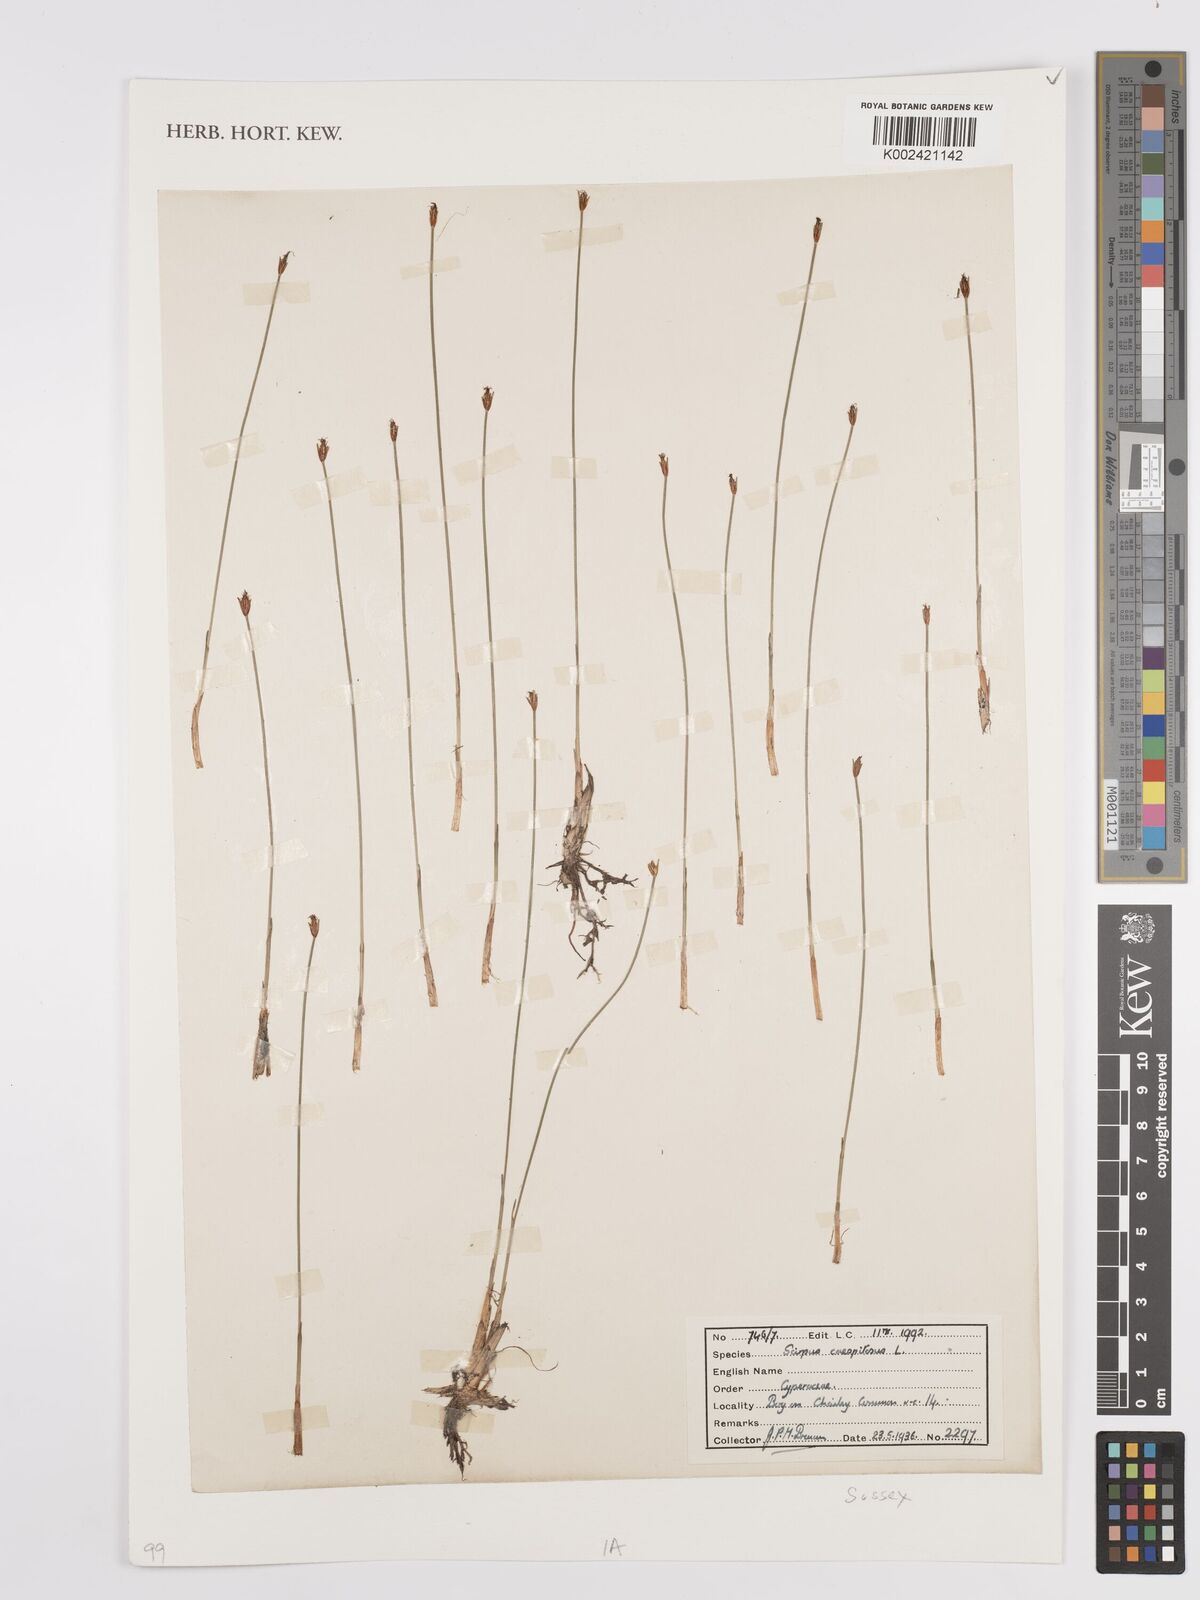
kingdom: Plantae
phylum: Tracheophyta
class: Liliopsida
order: Poales
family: Cyperaceae
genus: Eleocharis
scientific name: Eleocharis palustris
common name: Common spike-rush
